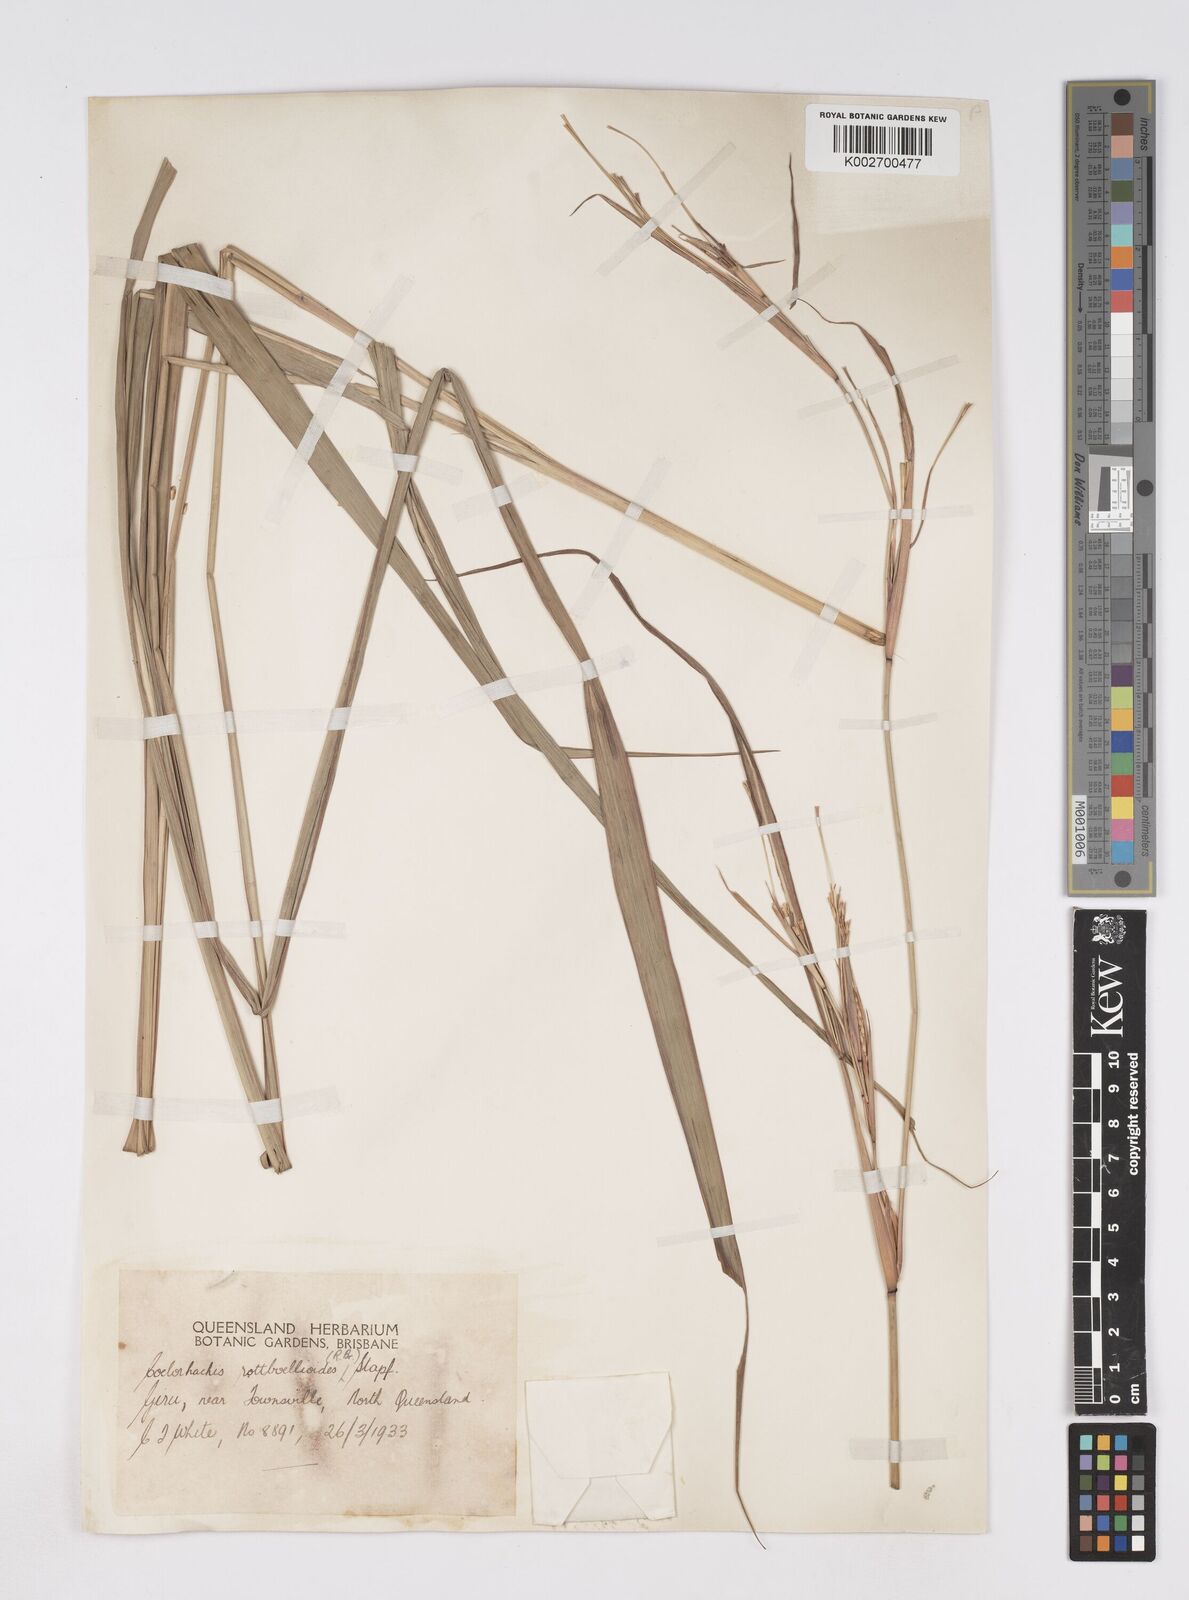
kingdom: Plantae
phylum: Tracheophyta
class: Liliopsida
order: Poales
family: Poaceae
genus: Rottboellia
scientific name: Rottboellia rottboellioides
